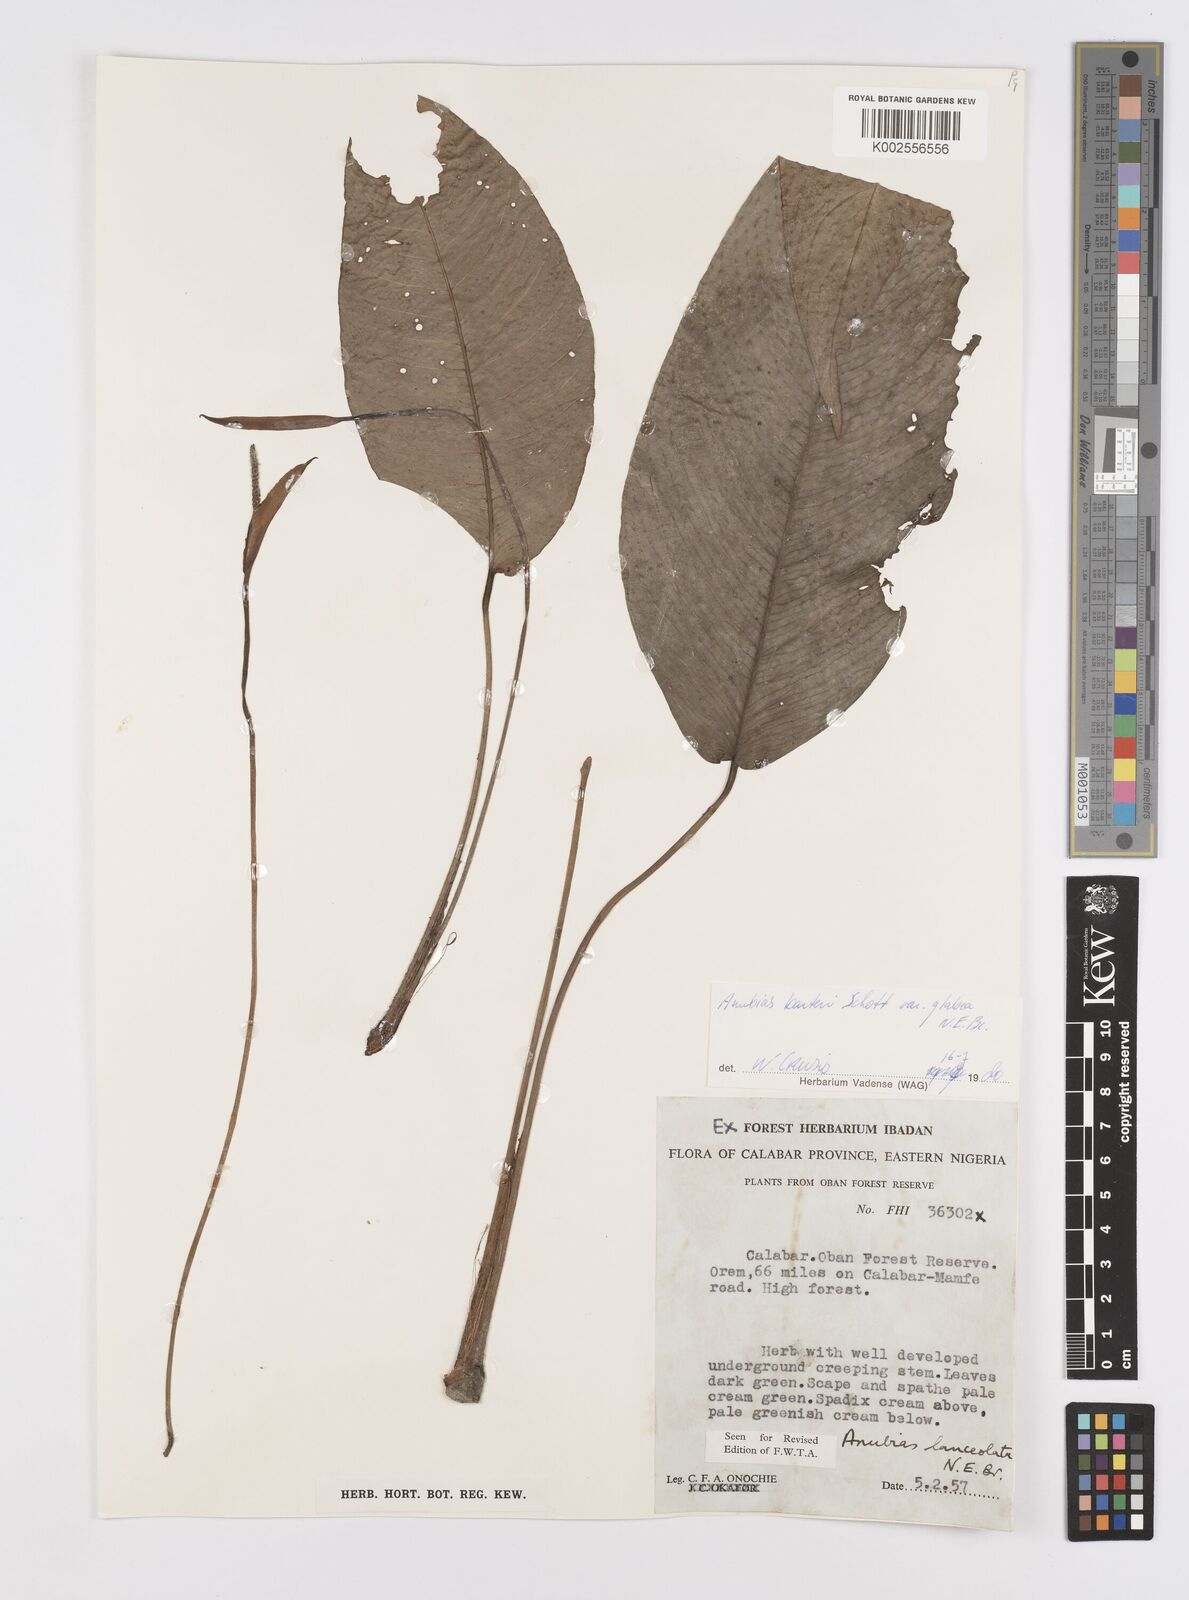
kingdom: Plantae
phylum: Tracheophyta
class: Liliopsida
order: Alismatales
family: Araceae
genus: Anubias
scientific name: Anubias barteri
